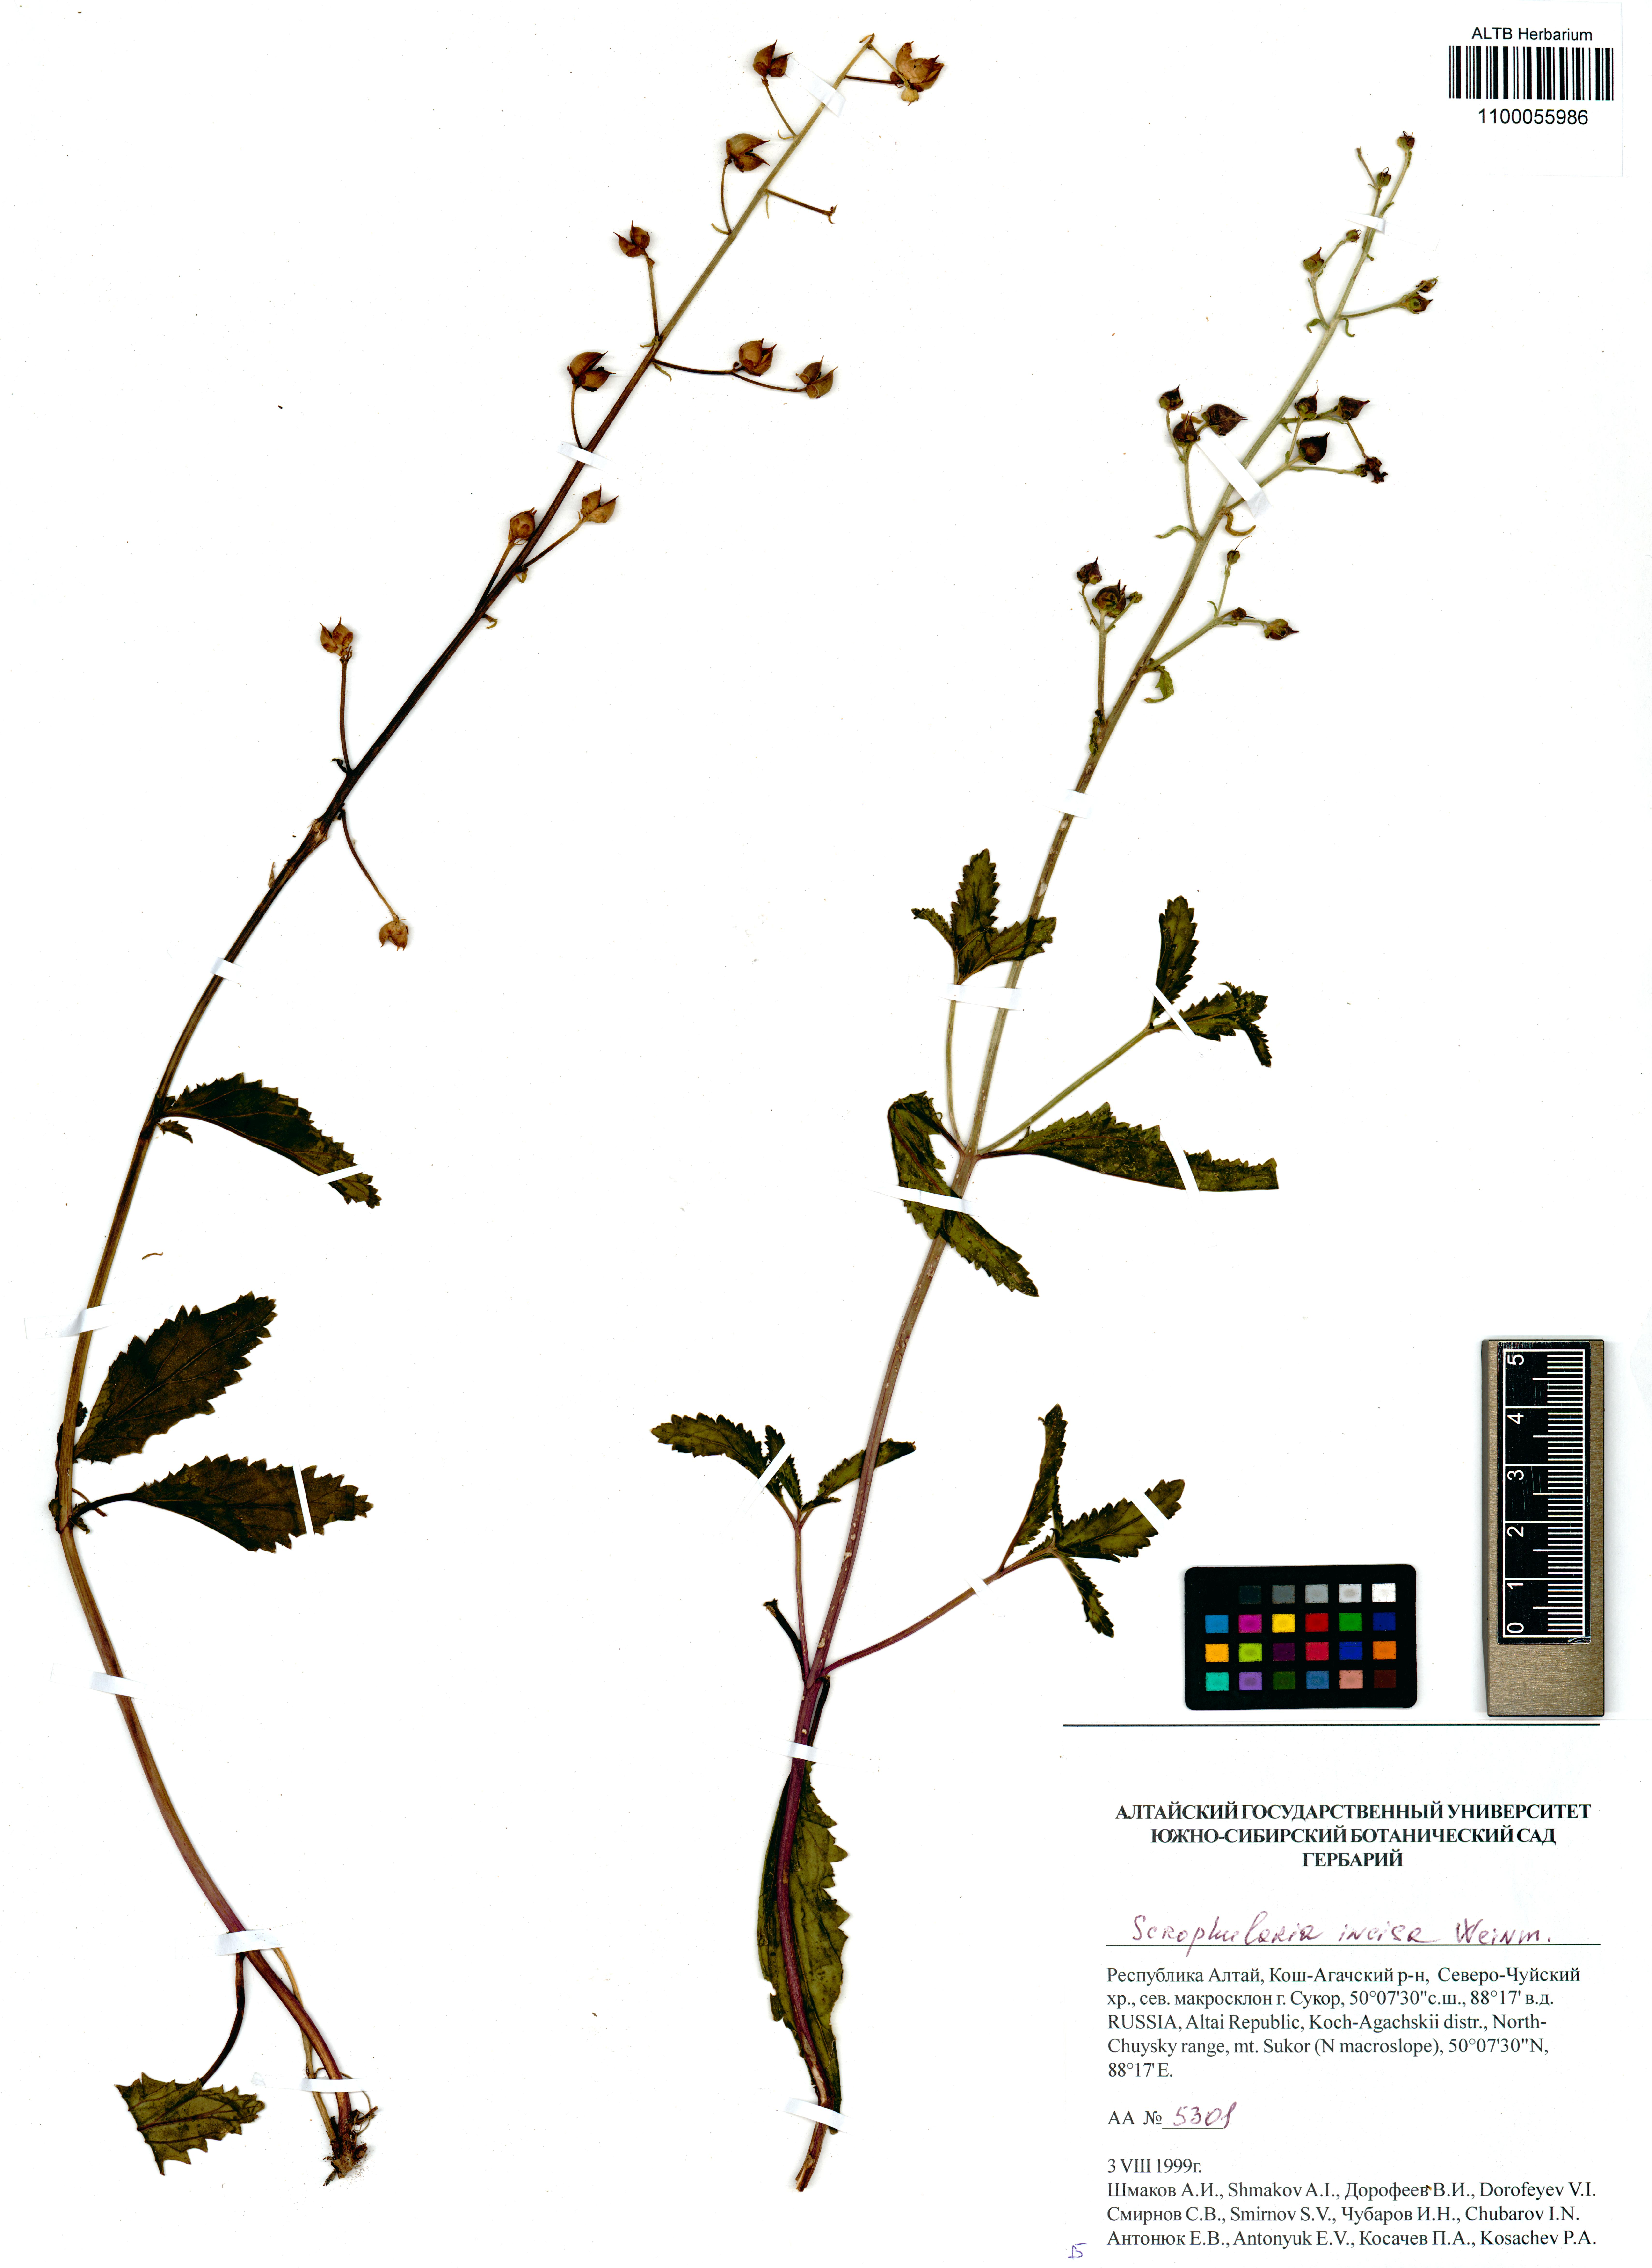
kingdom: Plantae
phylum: Tracheophyta
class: Magnoliopsida
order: Lamiales
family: Scrophulariaceae
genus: Scrophularia
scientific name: Scrophularia incisa
